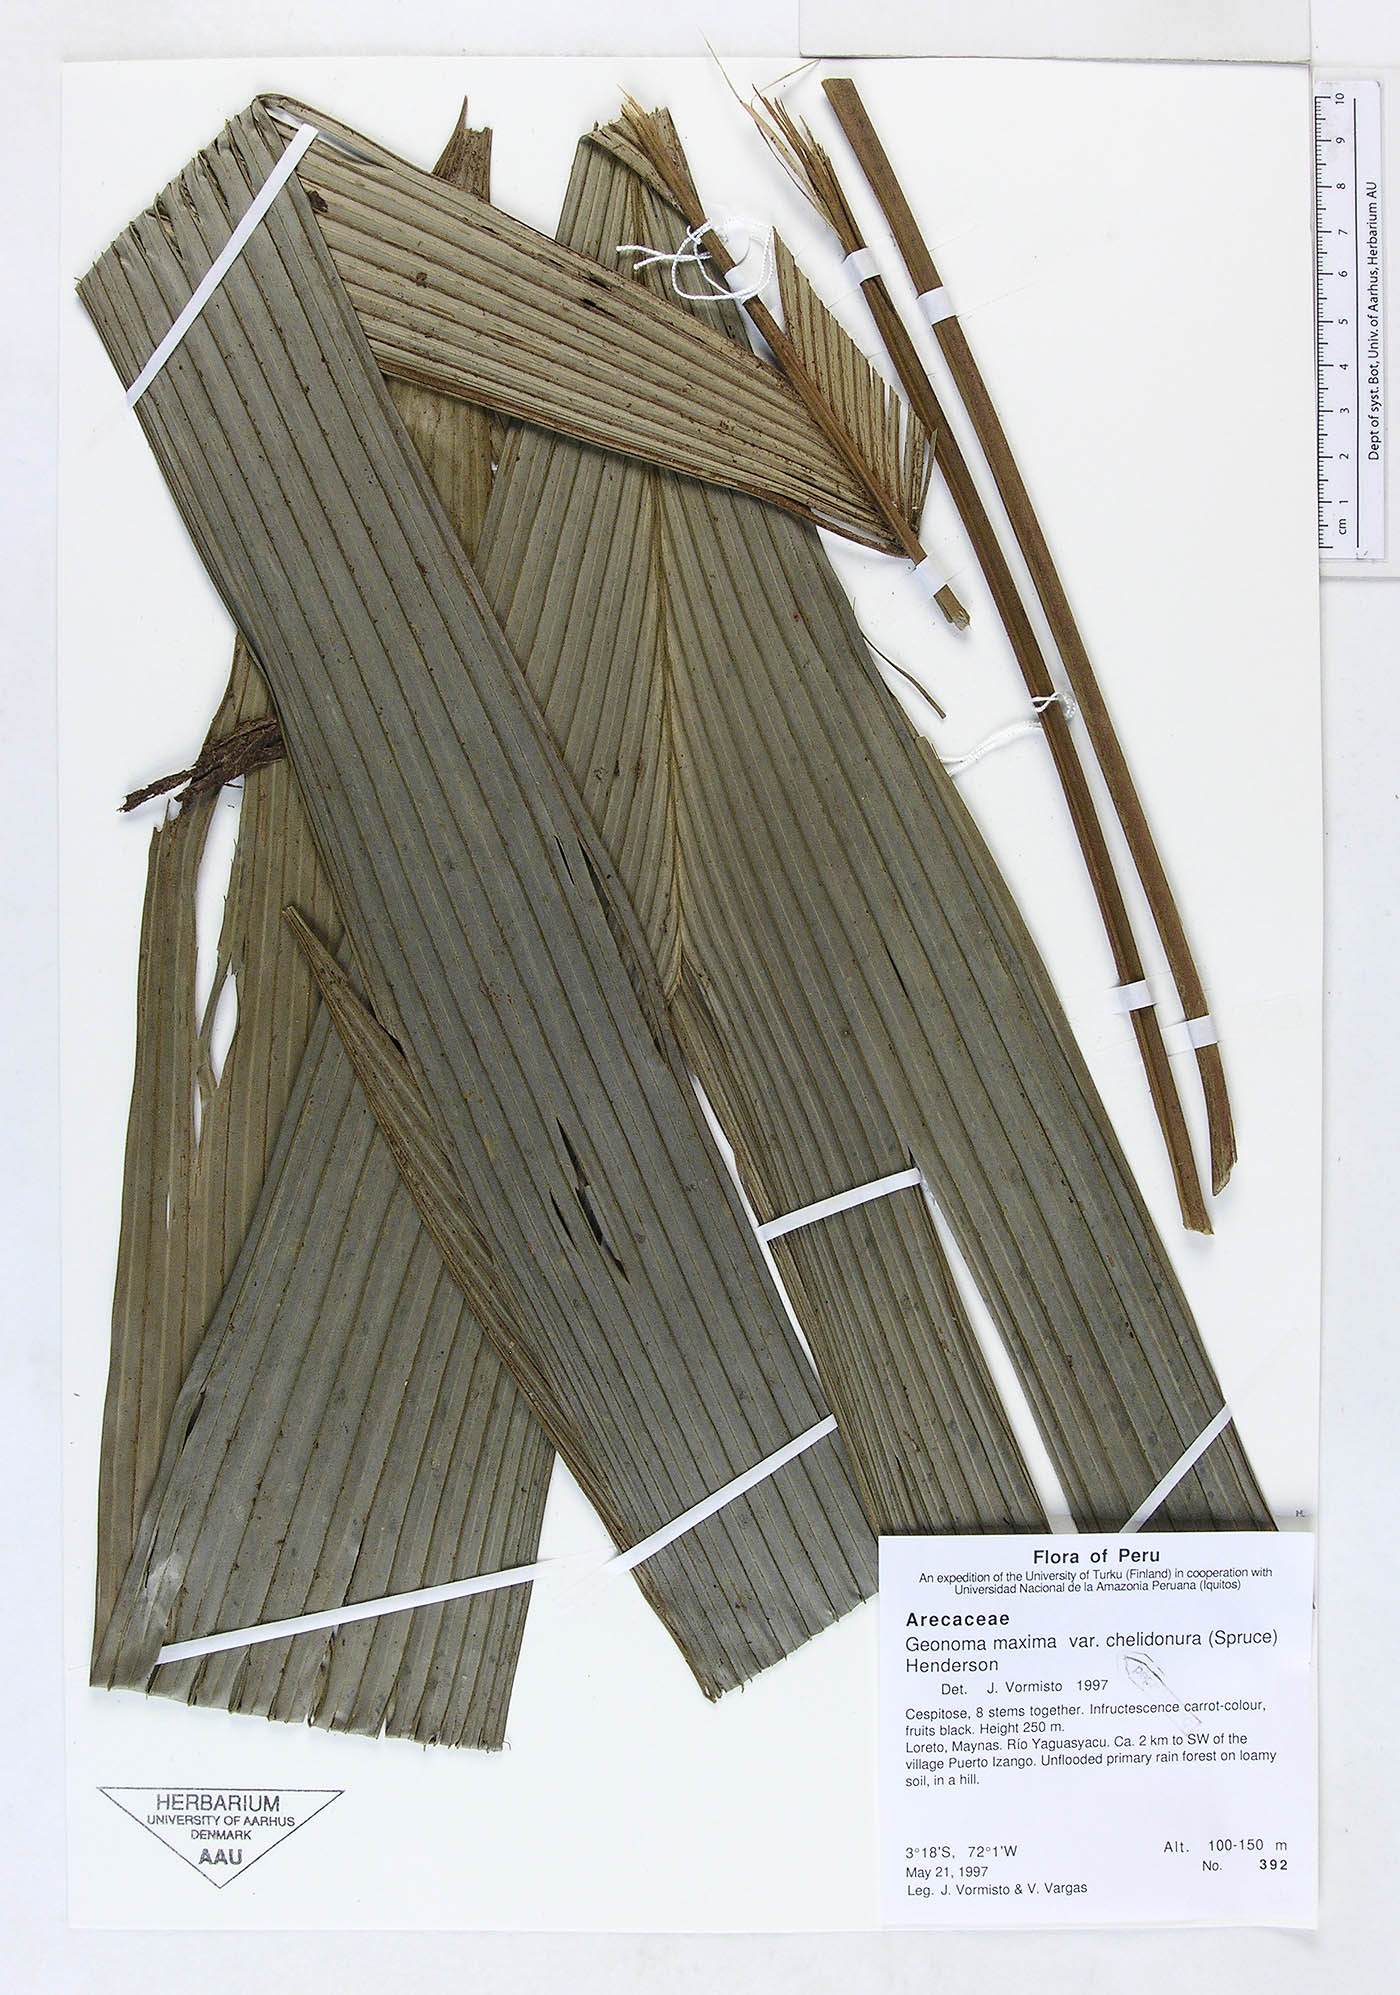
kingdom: Plantae
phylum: Tracheophyta
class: Liliopsida
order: Arecales
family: Arecaceae
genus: Geonoma
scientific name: Geonoma maxima
